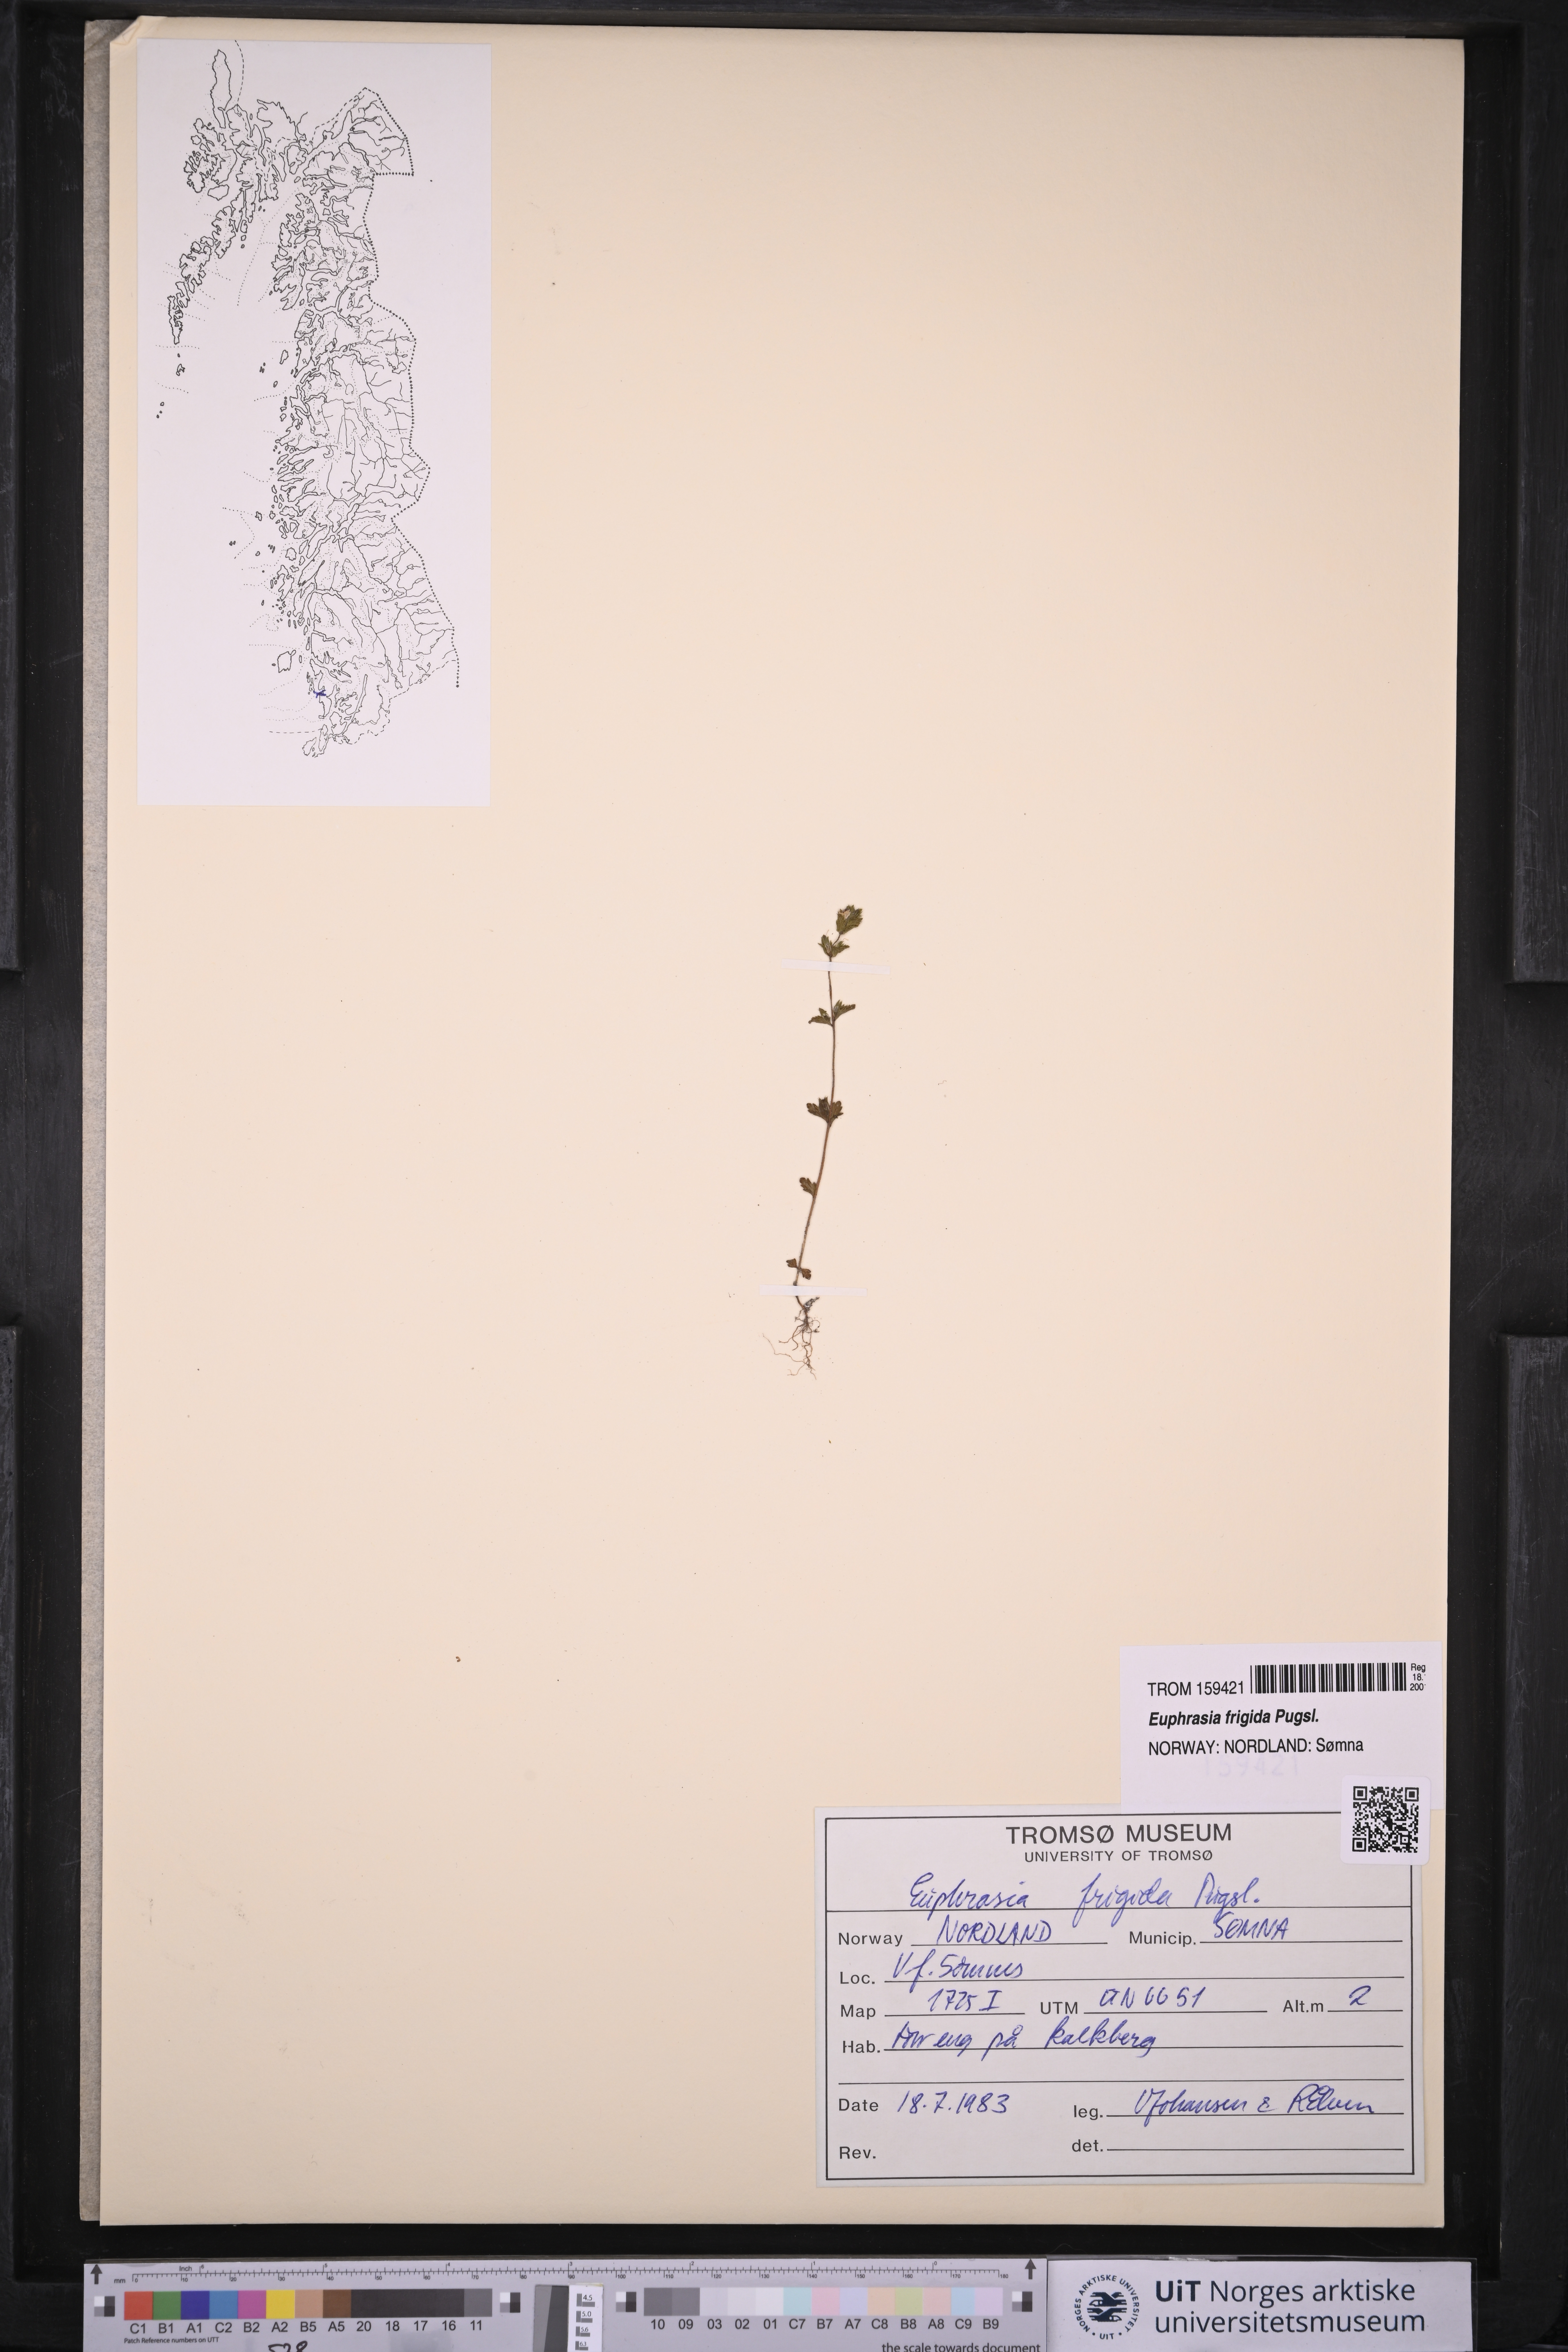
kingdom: Plantae
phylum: Tracheophyta
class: Magnoliopsida
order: Lamiales
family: Orobanchaceae
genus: Euphrasia
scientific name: Euphrasia frigida
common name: An eyebright
